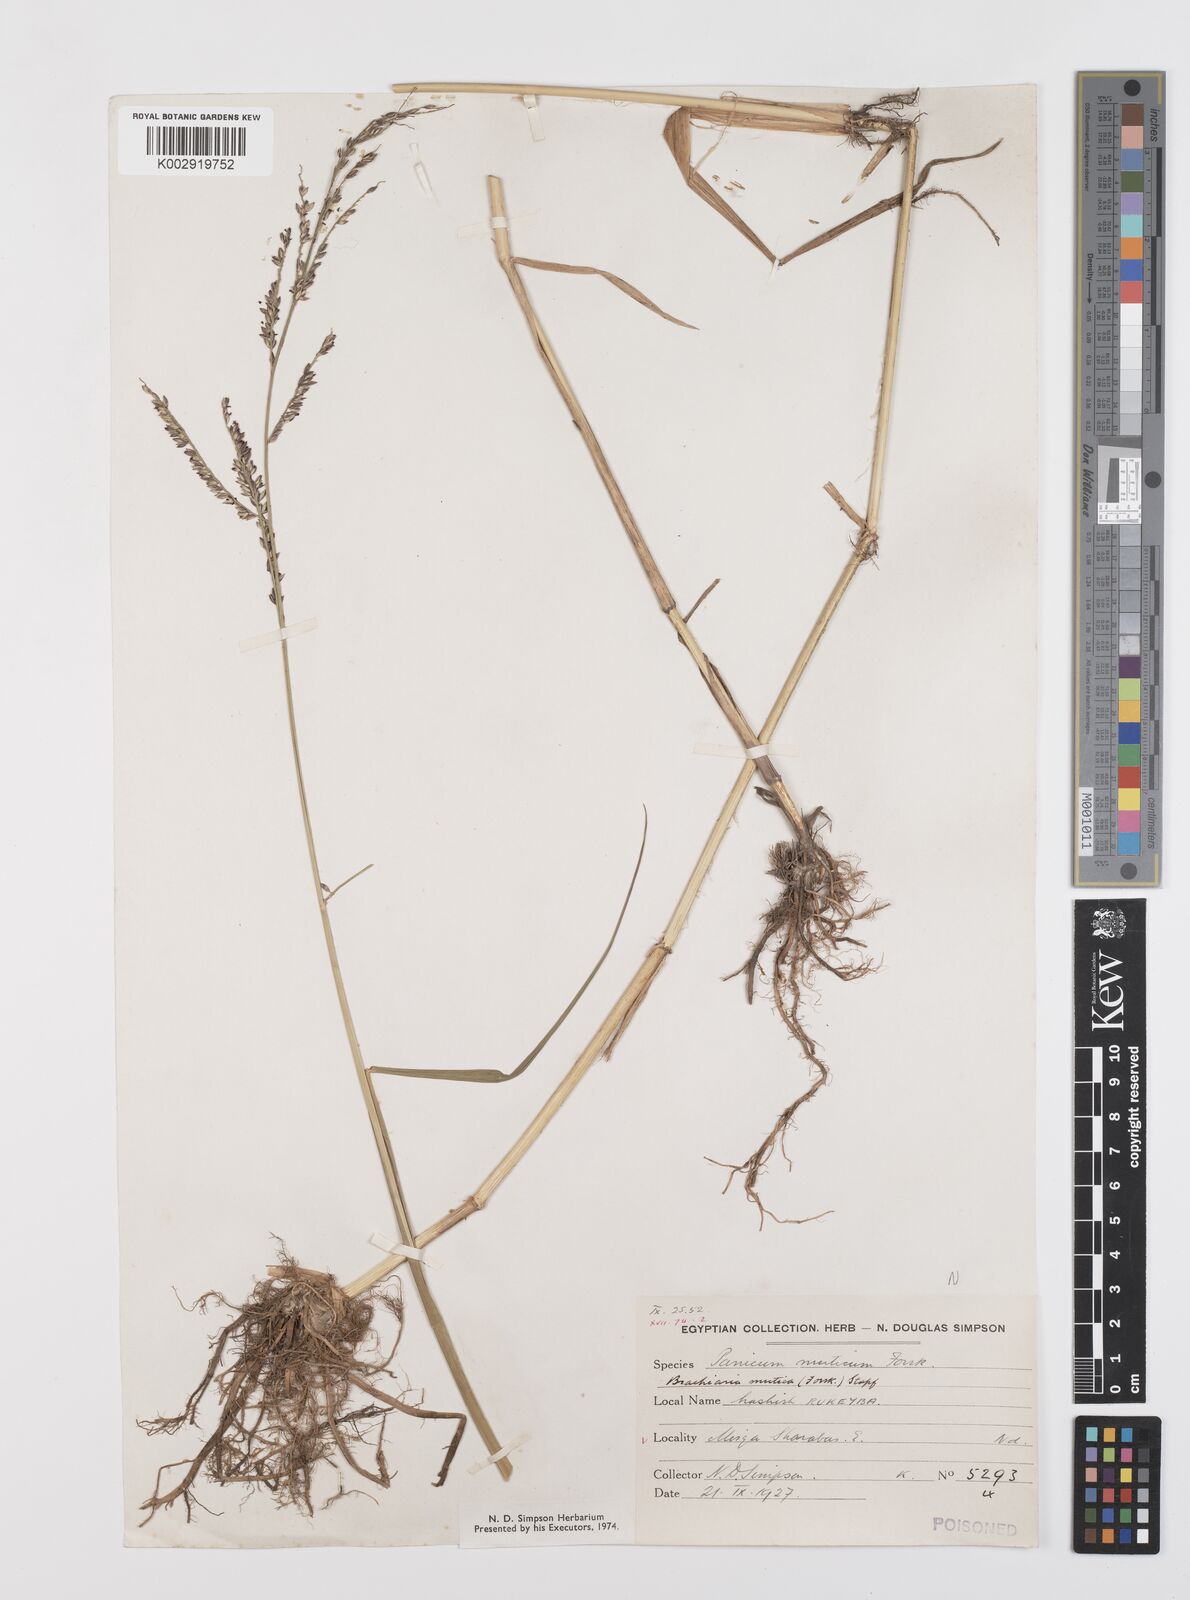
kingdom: Plantae
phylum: Tracheophyta
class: Liliopsida
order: Poales
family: Poaceae
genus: Urochloa
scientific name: Urochloa mutica
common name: Para grass
